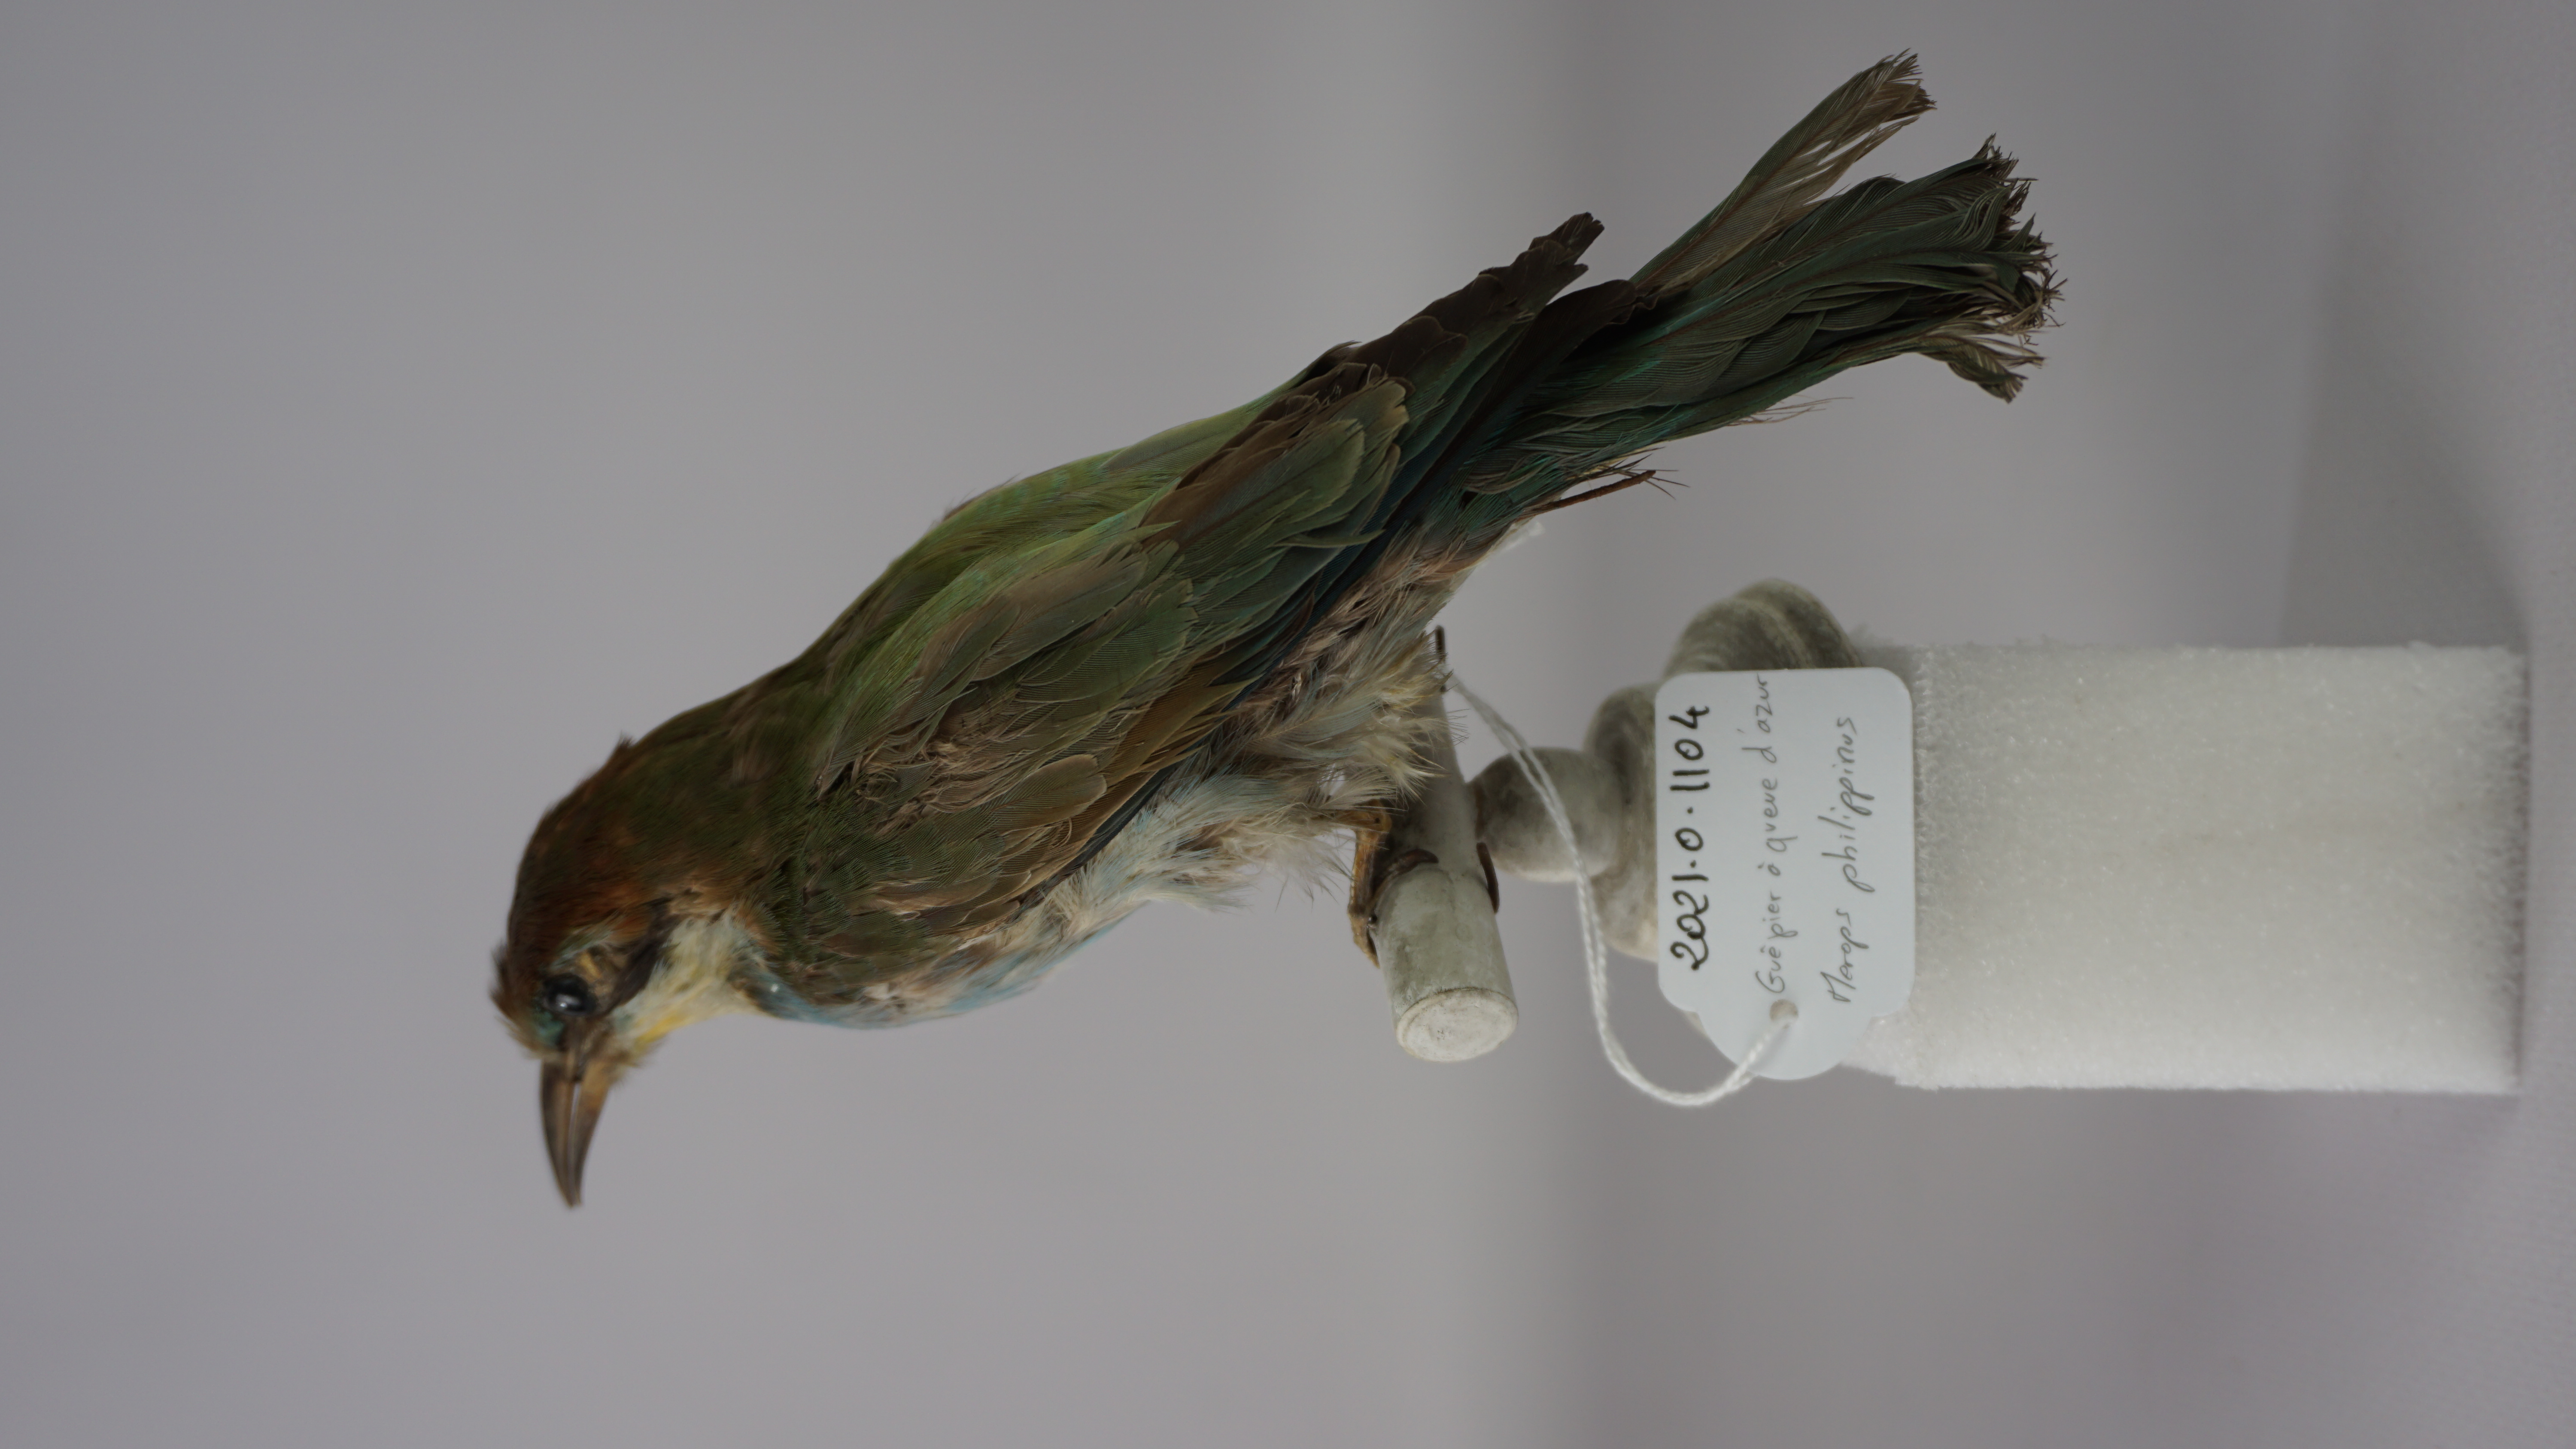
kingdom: Animalia
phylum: Chordata
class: Aves
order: Coraciiformes
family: Meropidae
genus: Merops
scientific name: Merops philippinus
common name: Blue-tailed bee-eater
